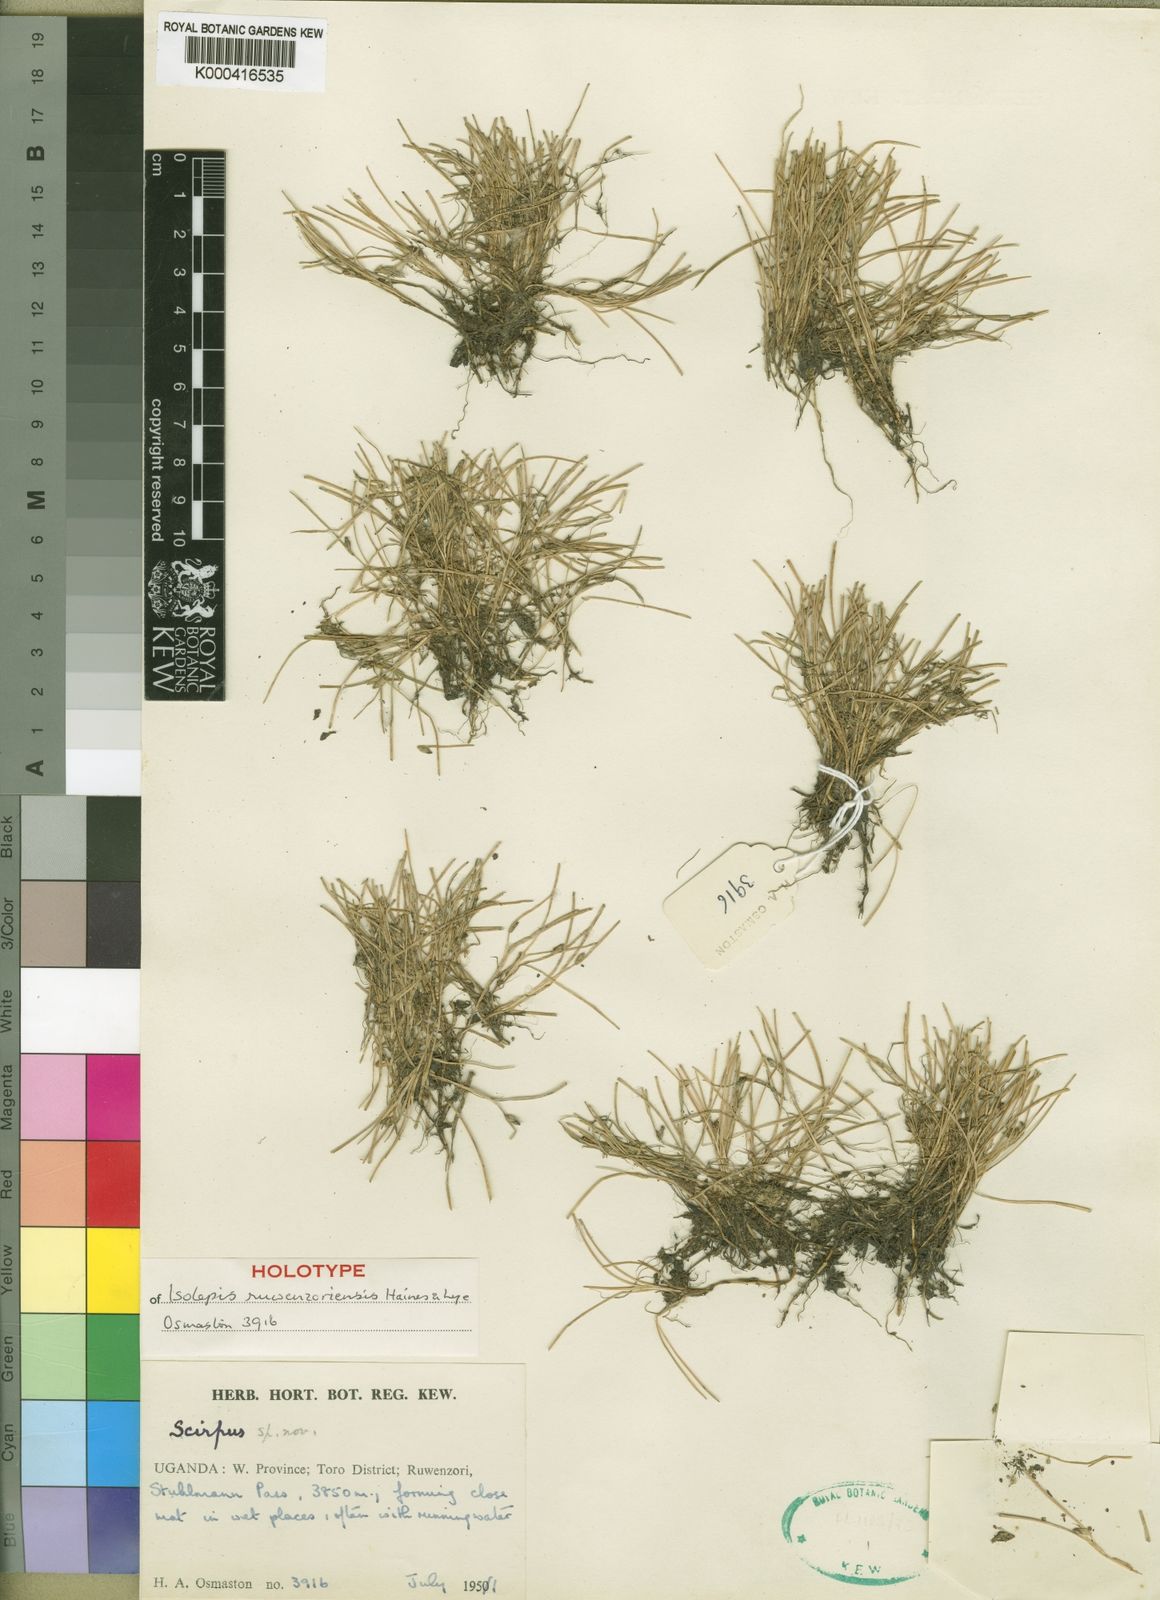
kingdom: Plantae
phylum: Tracheophyta
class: Liliopsida
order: Poales
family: Cyperaceae
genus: Isolepis
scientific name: Isolepis ruwenzoriensis
